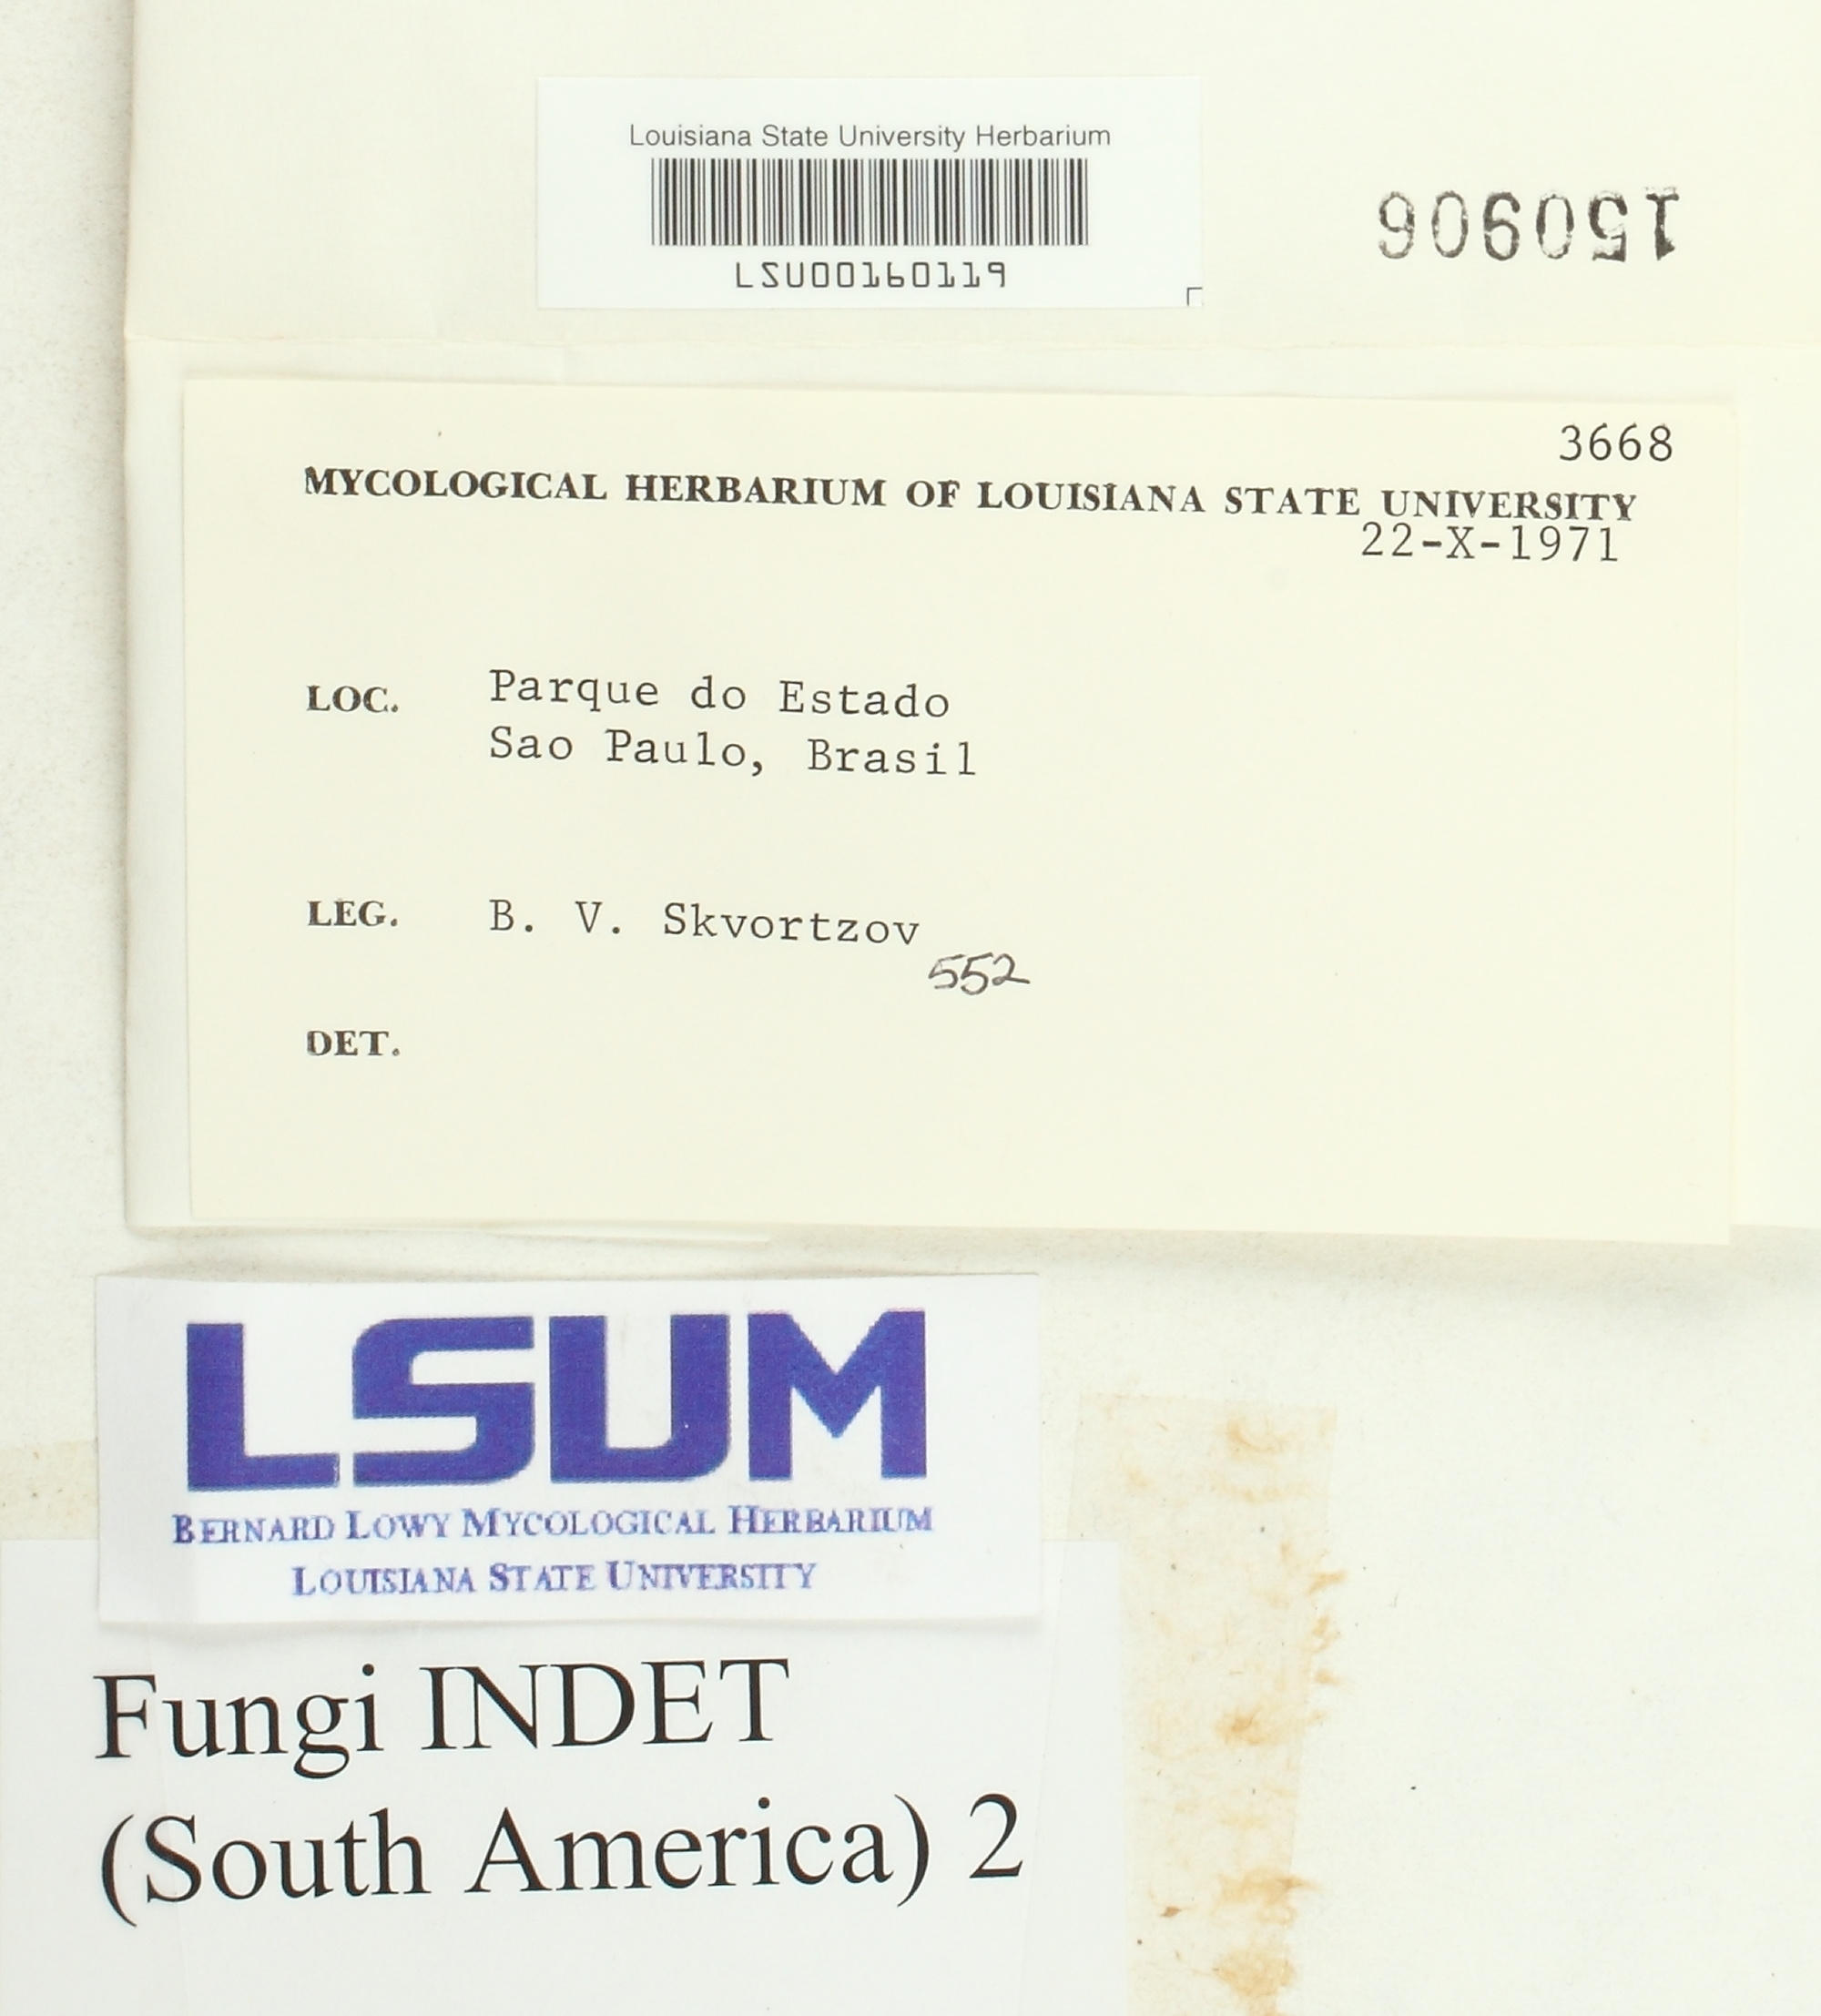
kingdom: Fungi
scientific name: Fungi
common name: Fungi
